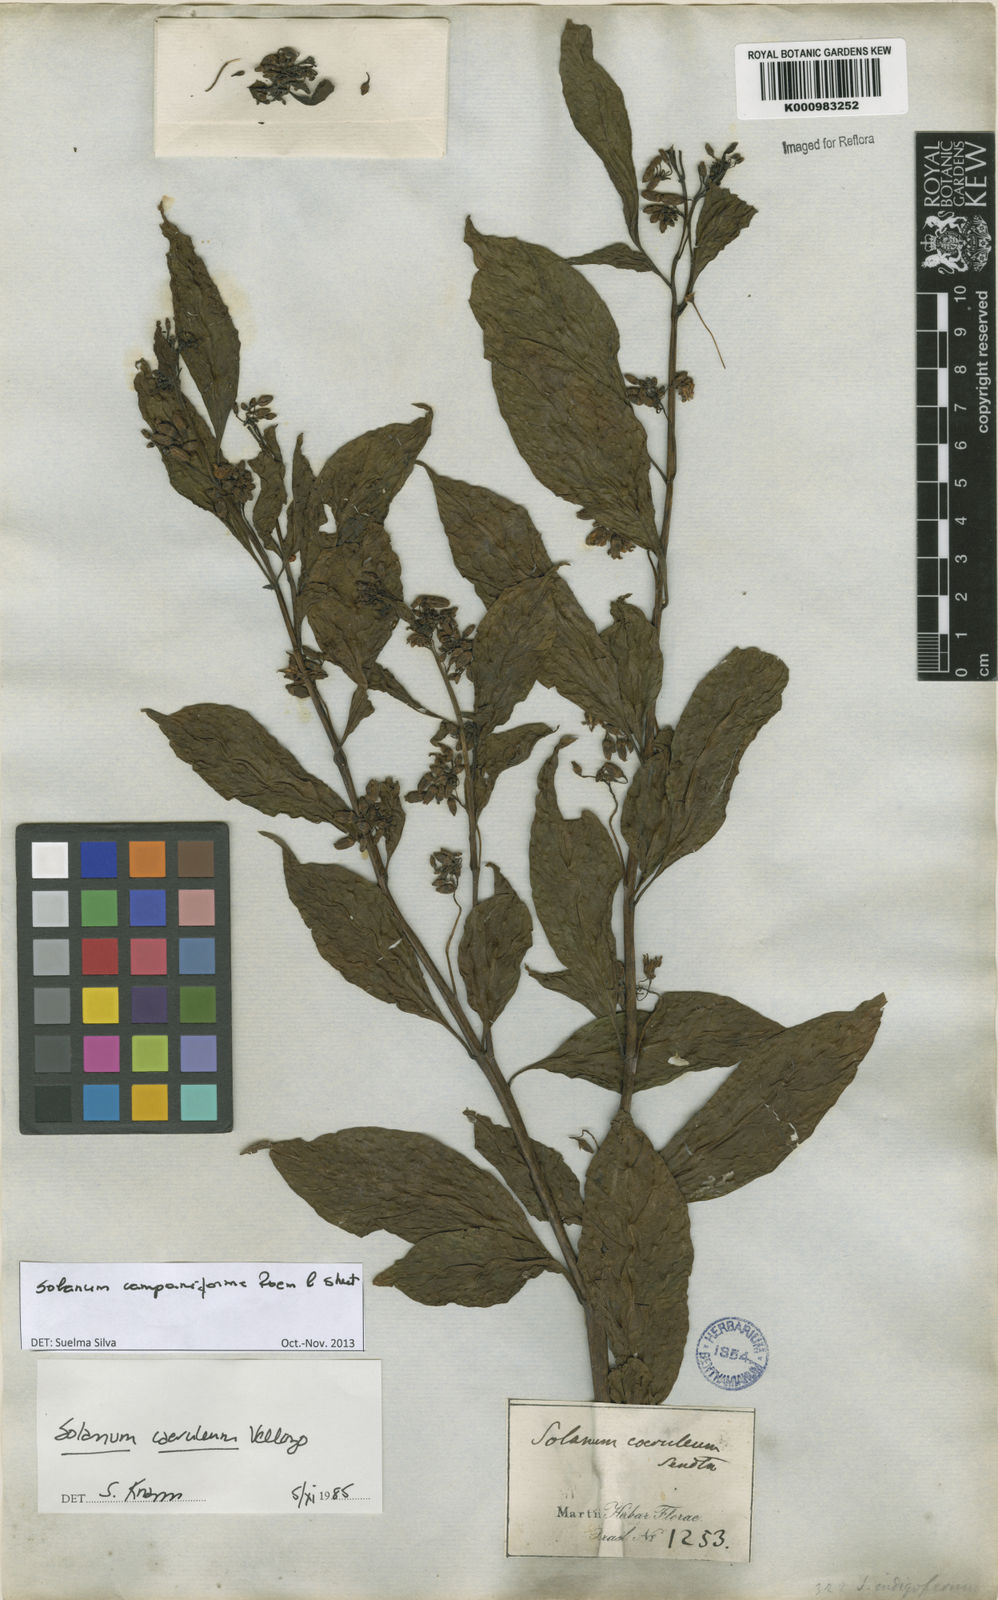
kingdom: Plantae
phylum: Tracheophyta
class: Magnoliopsida
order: Solanales
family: Solanaceae
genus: Solanum
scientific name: Solanum campaniforme
